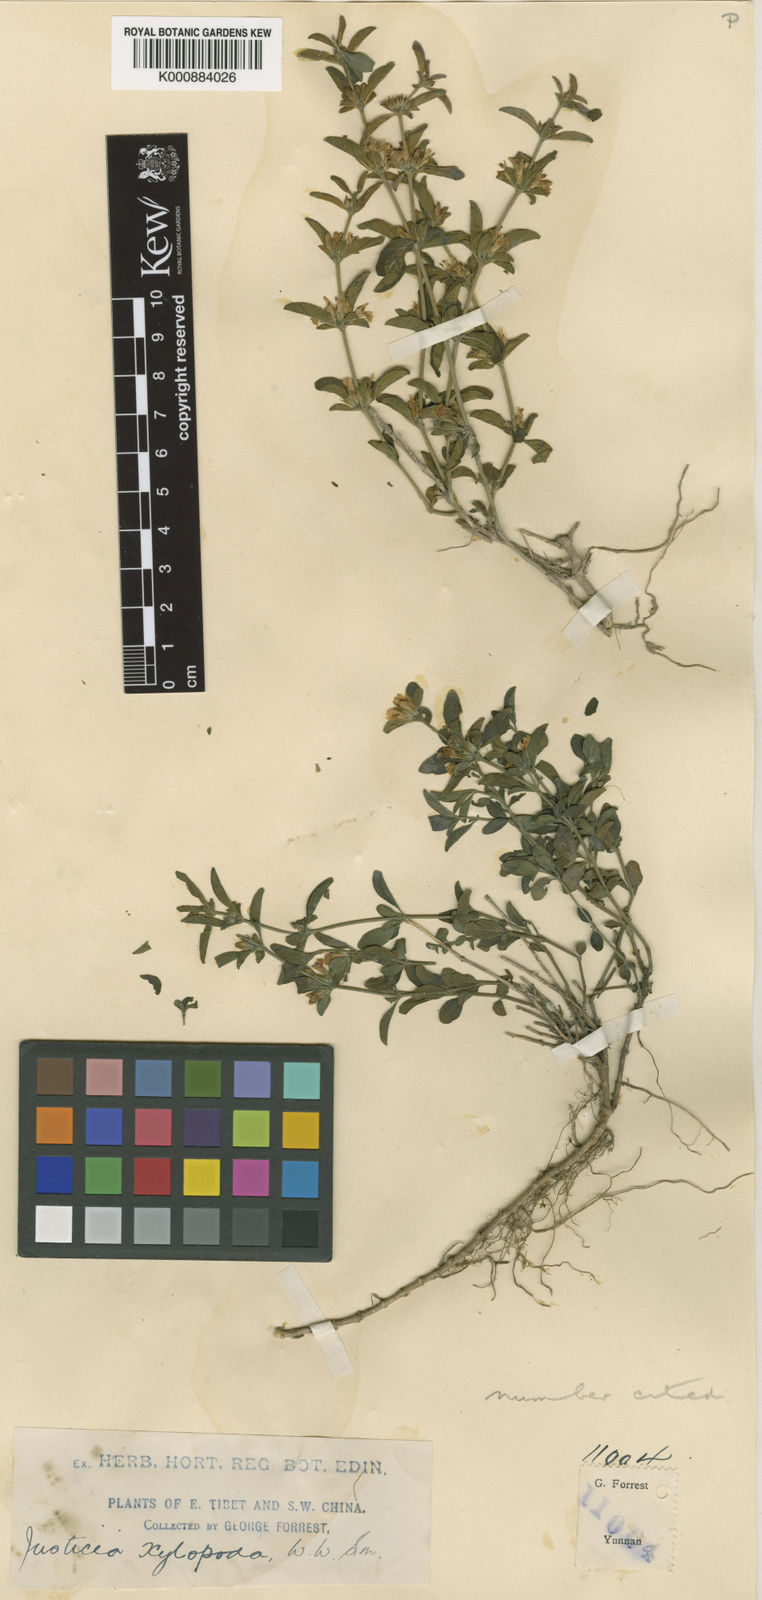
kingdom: Plantae
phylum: Tracheophyta
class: Magnoliopsida
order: Lamiales
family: Acanthaceae
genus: Justicia
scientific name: Justicia xylopoda
